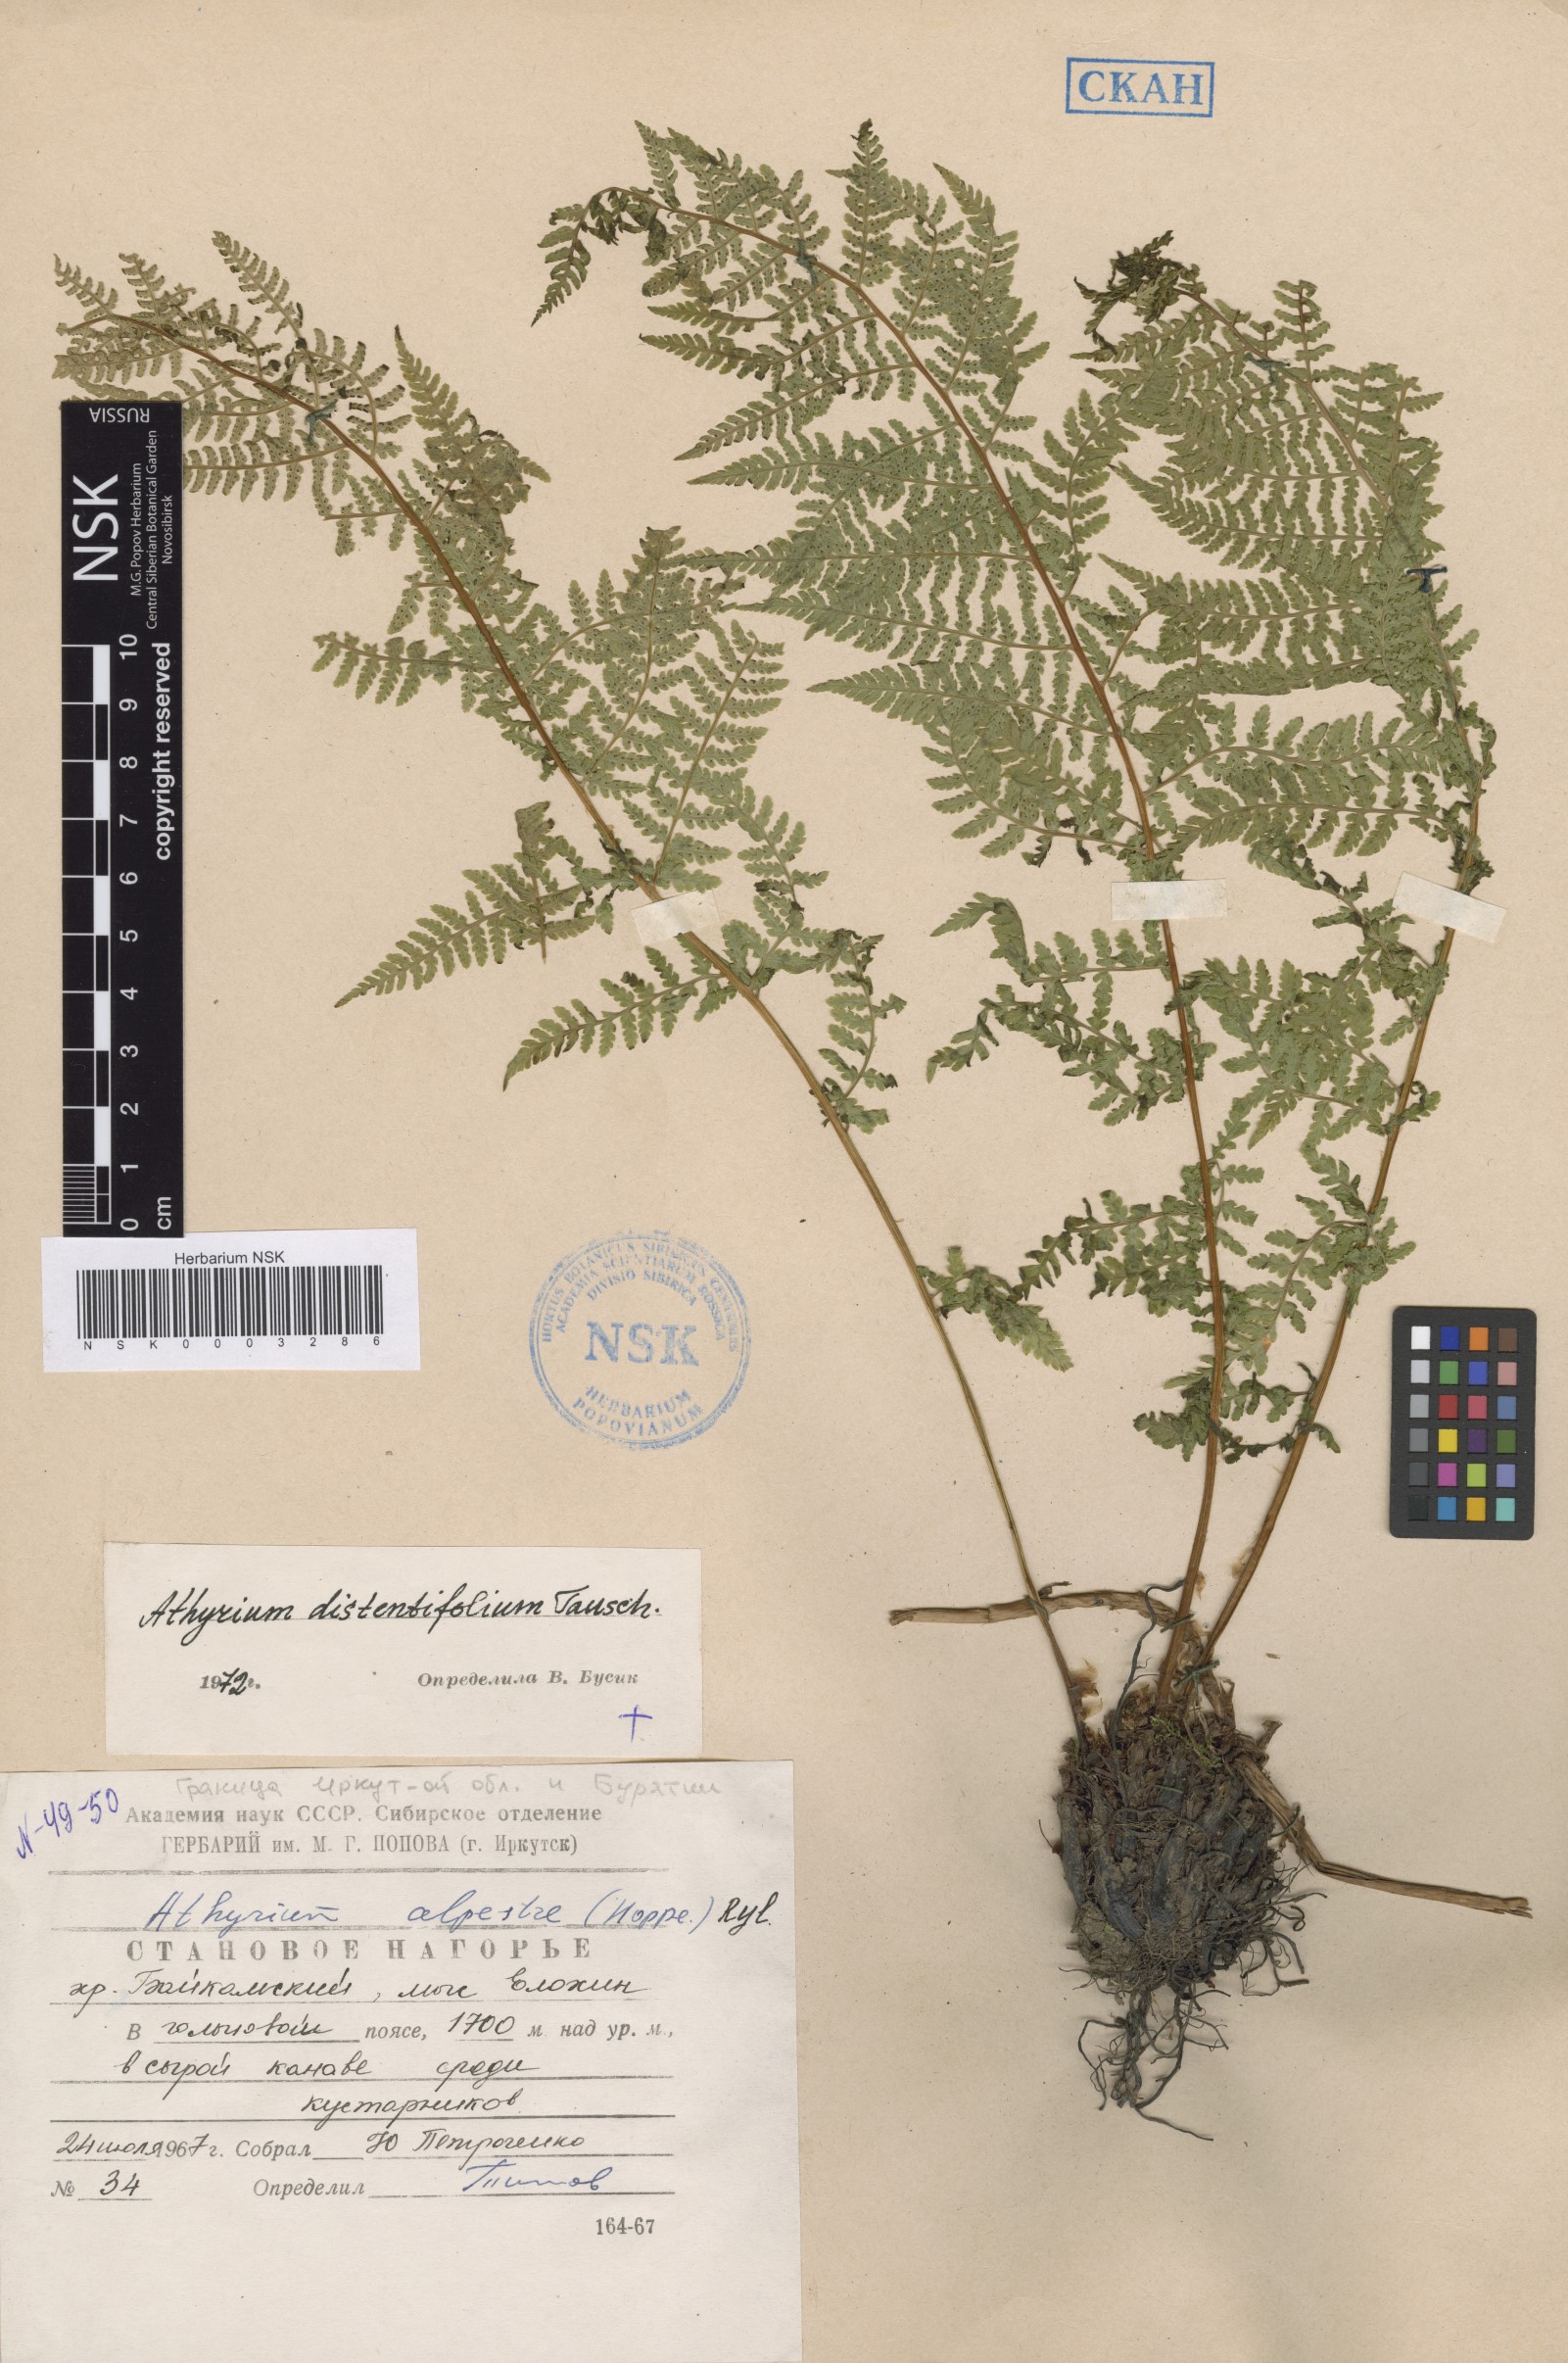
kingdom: Plantae
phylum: Tracheophyta
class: Polypodiopsida
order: Polypodiales
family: Athyriaceae
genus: Pseudathyrium
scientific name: Pseudathyrium alpestre
